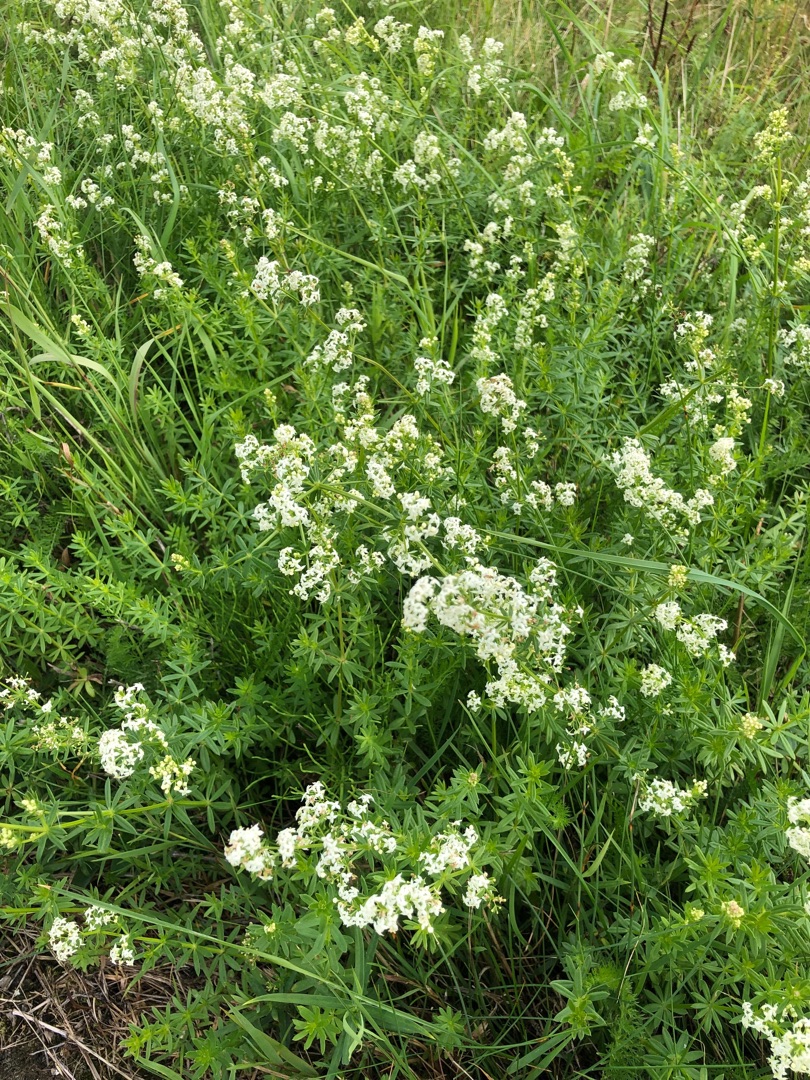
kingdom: Plantae
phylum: Tracheophyta
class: Magnoliopsida
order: Gentianales
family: Rubiaceae
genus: Galium
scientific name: Galium mollugo
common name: Hvid snerre
